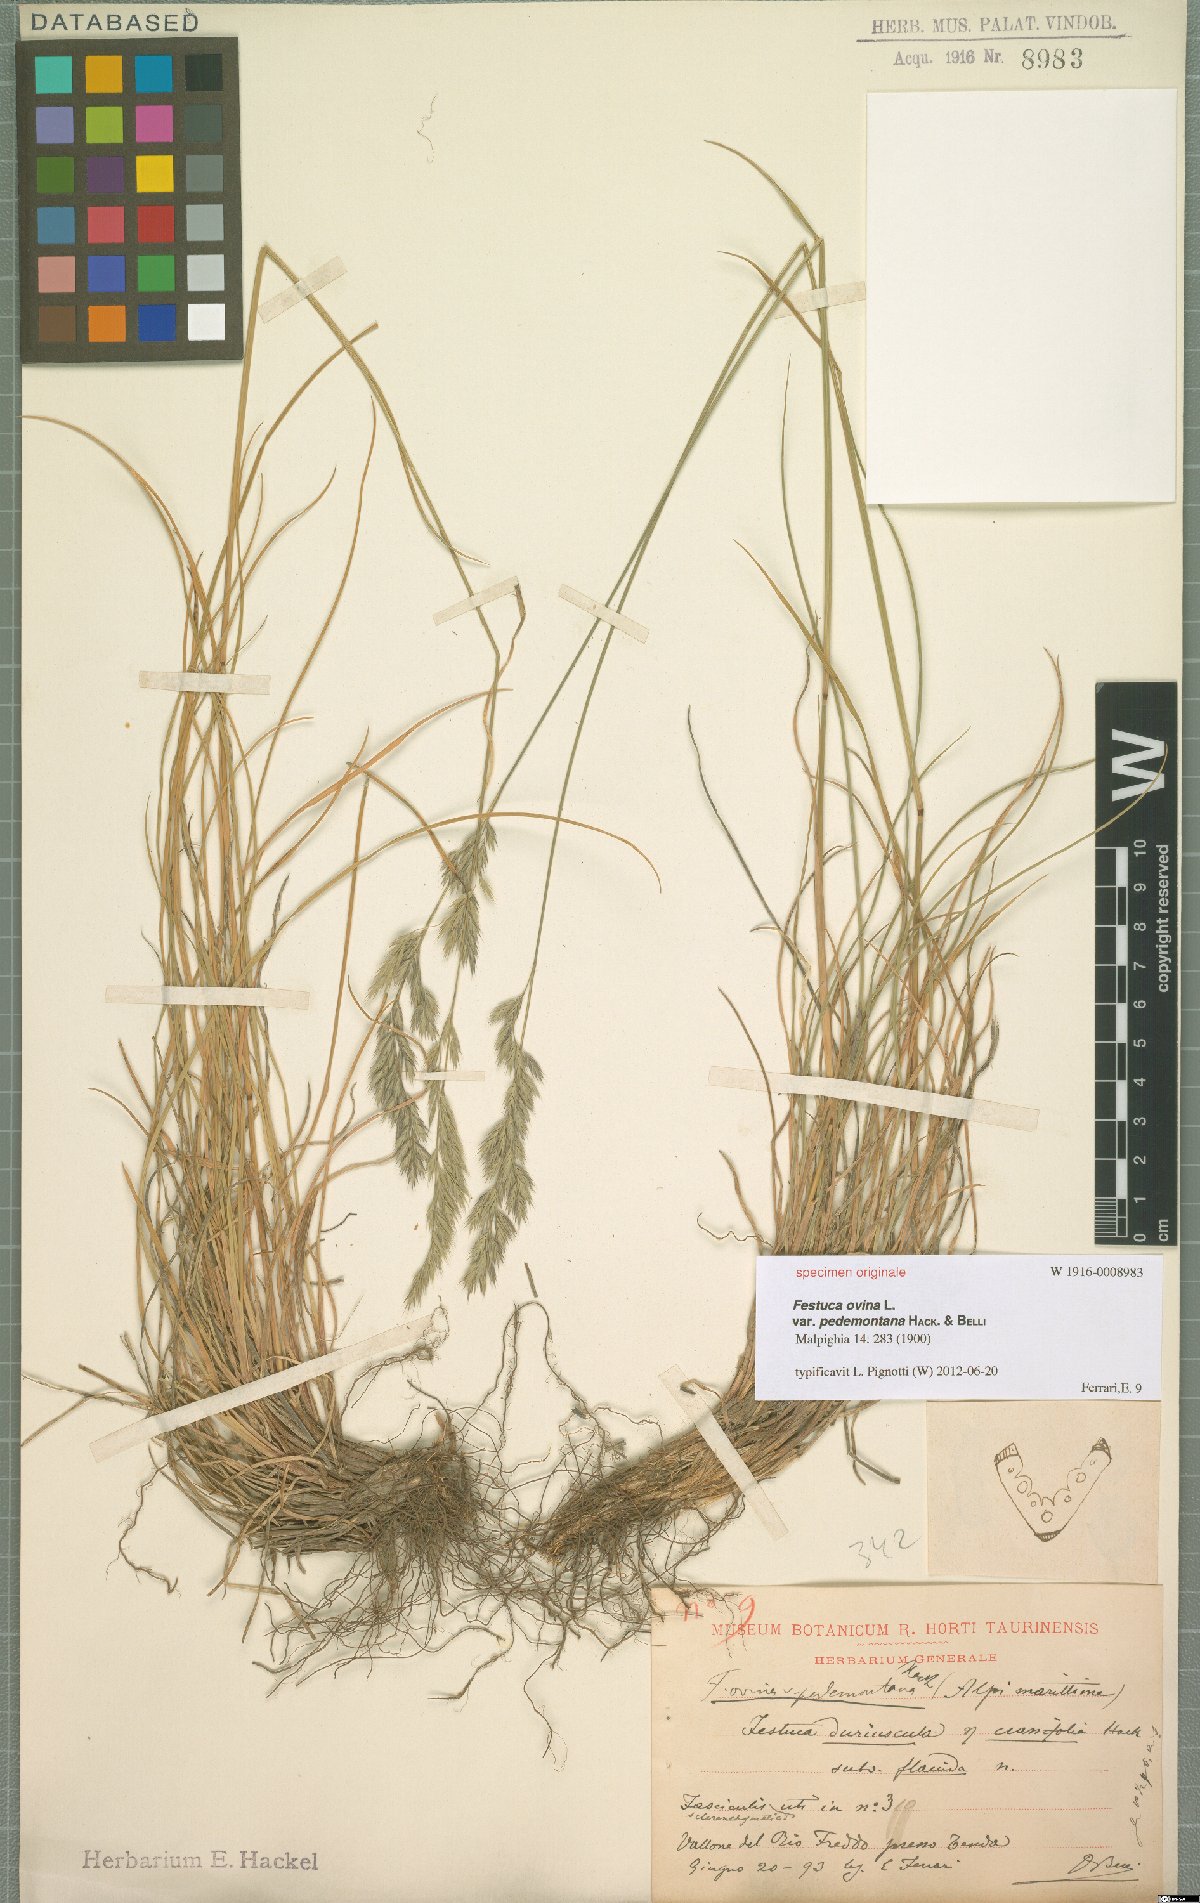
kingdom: Plantae
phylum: Tracheophyta
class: Liliopsida
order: Poales
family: Poaceae
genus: Festuca
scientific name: Festuca ovina
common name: Sheep fescue
